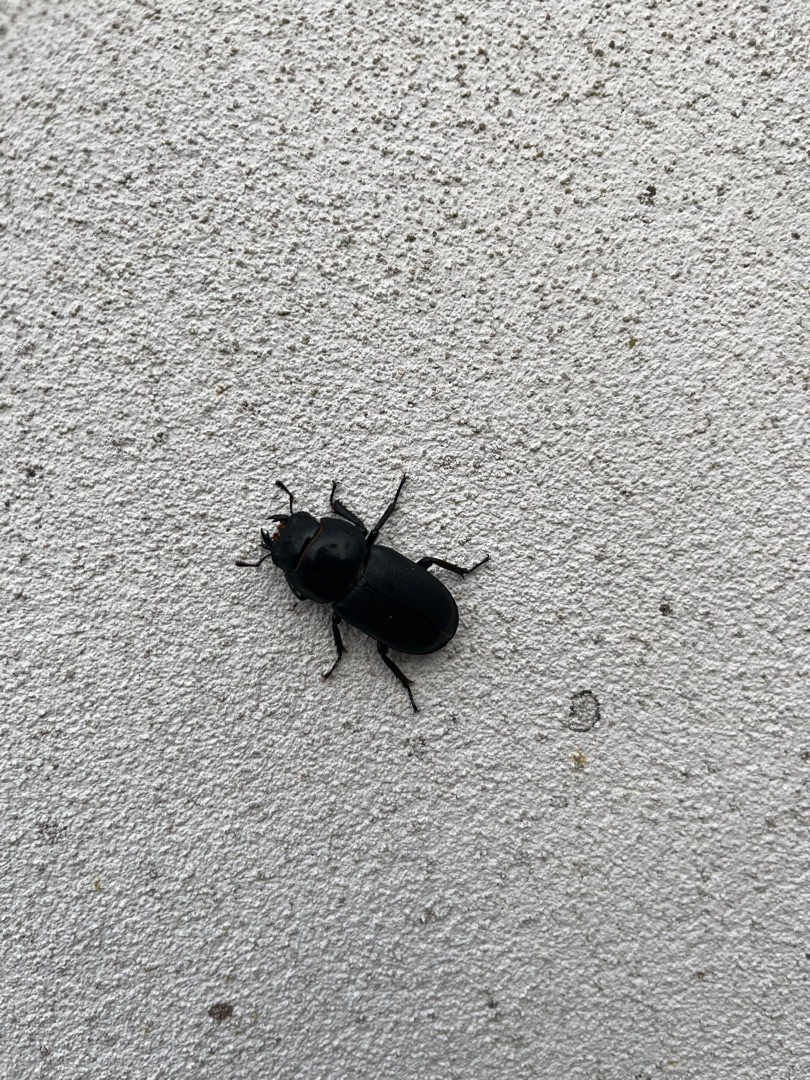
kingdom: Animalia
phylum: Arthropoda
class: Insecta
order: Coleoptera
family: Lucanidae
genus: Dorcus
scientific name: Dorcus parallelipipedus
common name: Bøghjort
